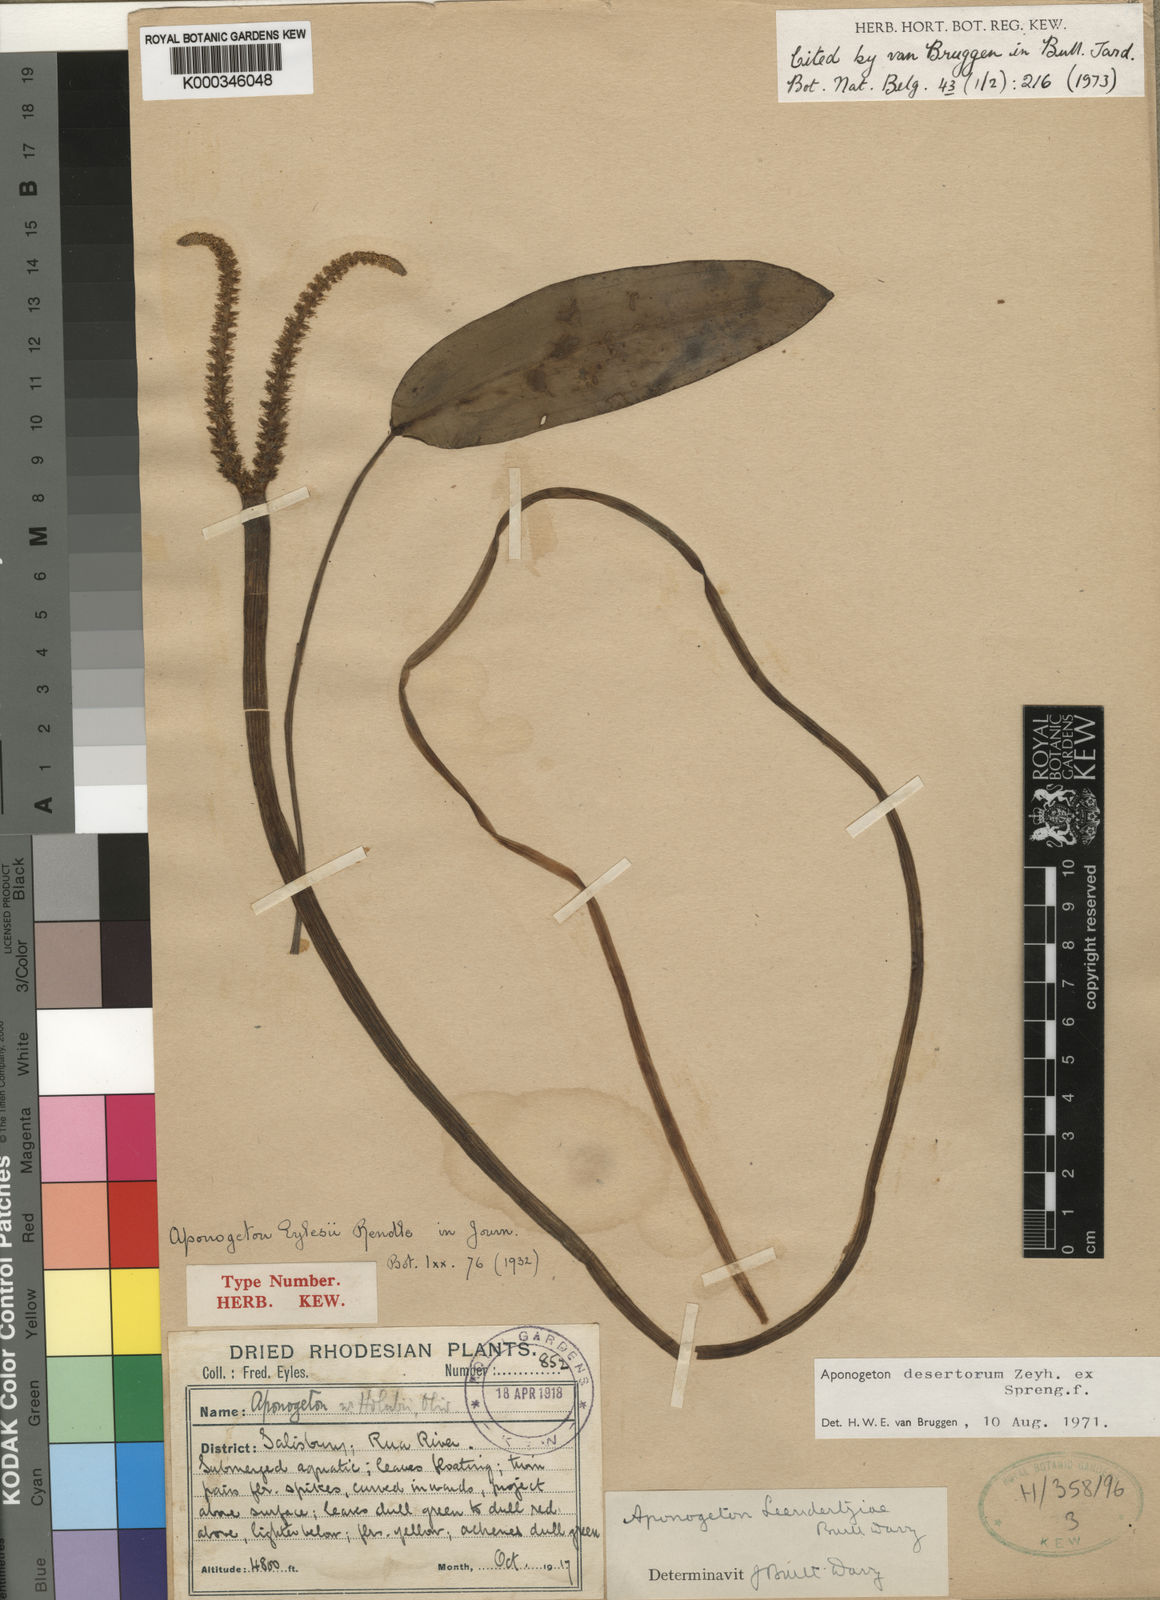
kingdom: Plantae
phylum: Tracheophyta
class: Liliopsida
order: Alismatales
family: Aponogetonaceae
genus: Aponogeton
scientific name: Aponogeton desertorum
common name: Dog-with-two-tails
